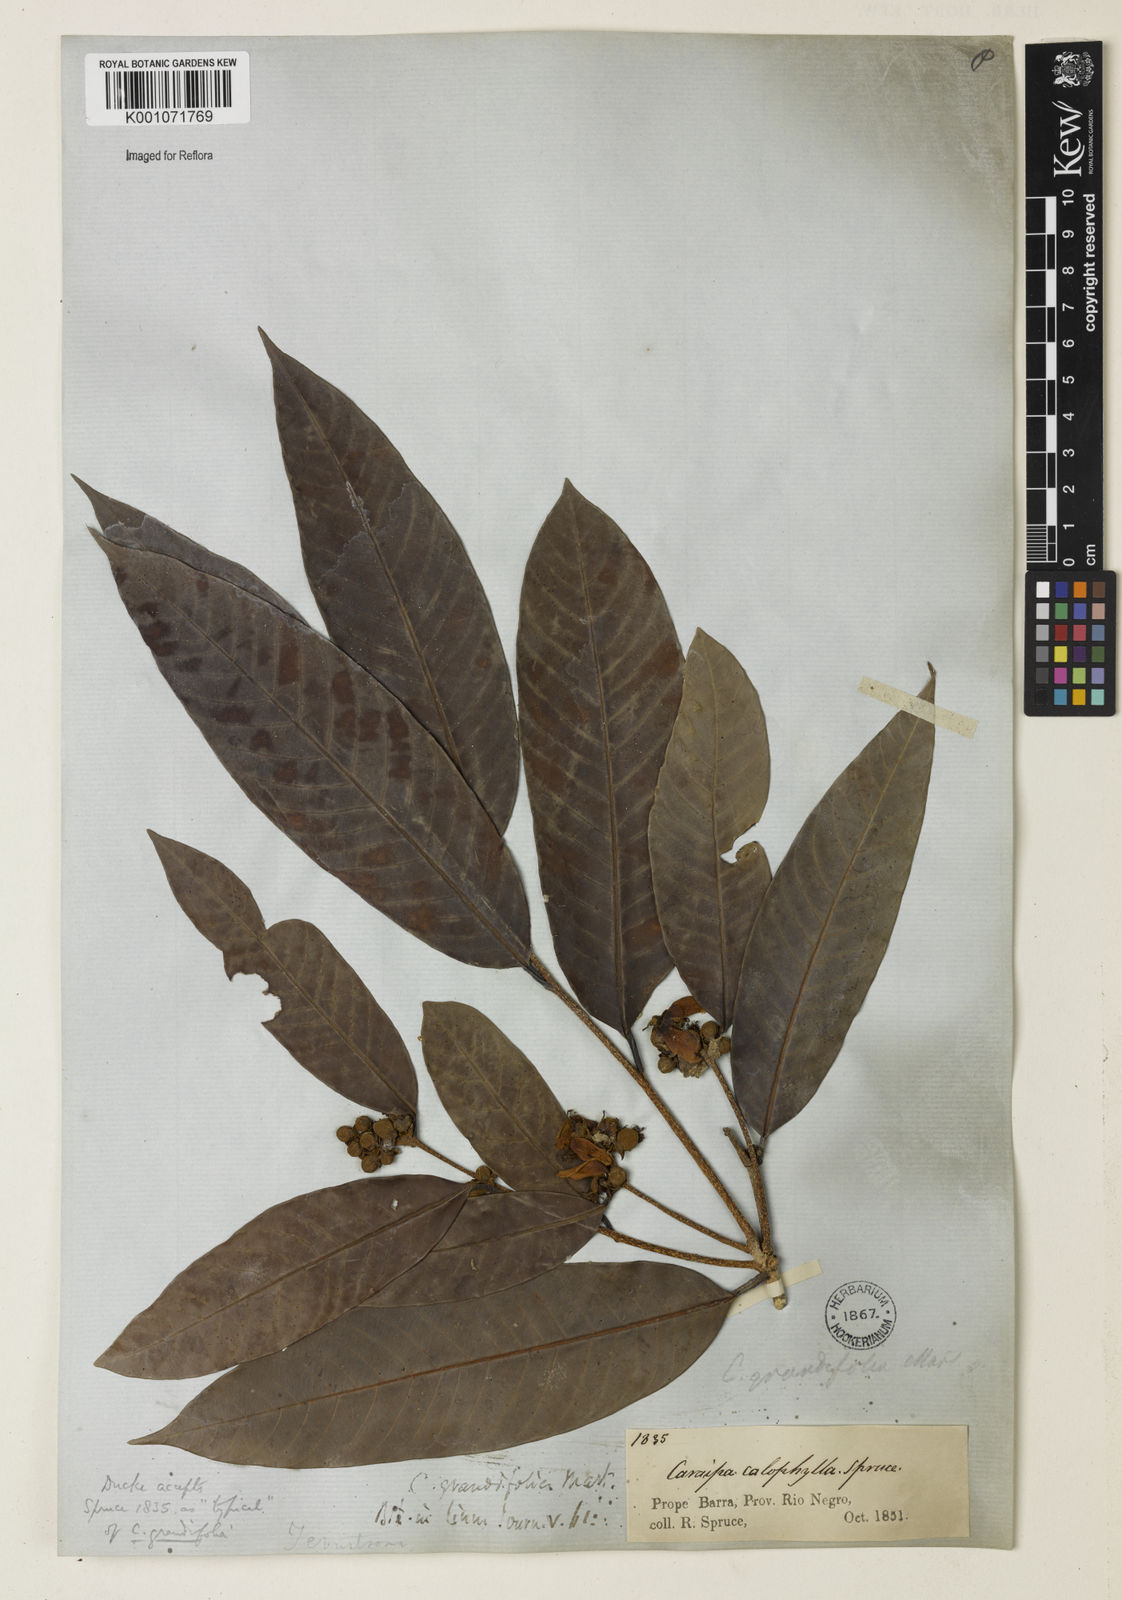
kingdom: Plantae
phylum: Tracheophyta
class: Magnoliopsida
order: Malpighiales
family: Calophyllaceae
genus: Caraipa
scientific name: Caraipa grandifolia
